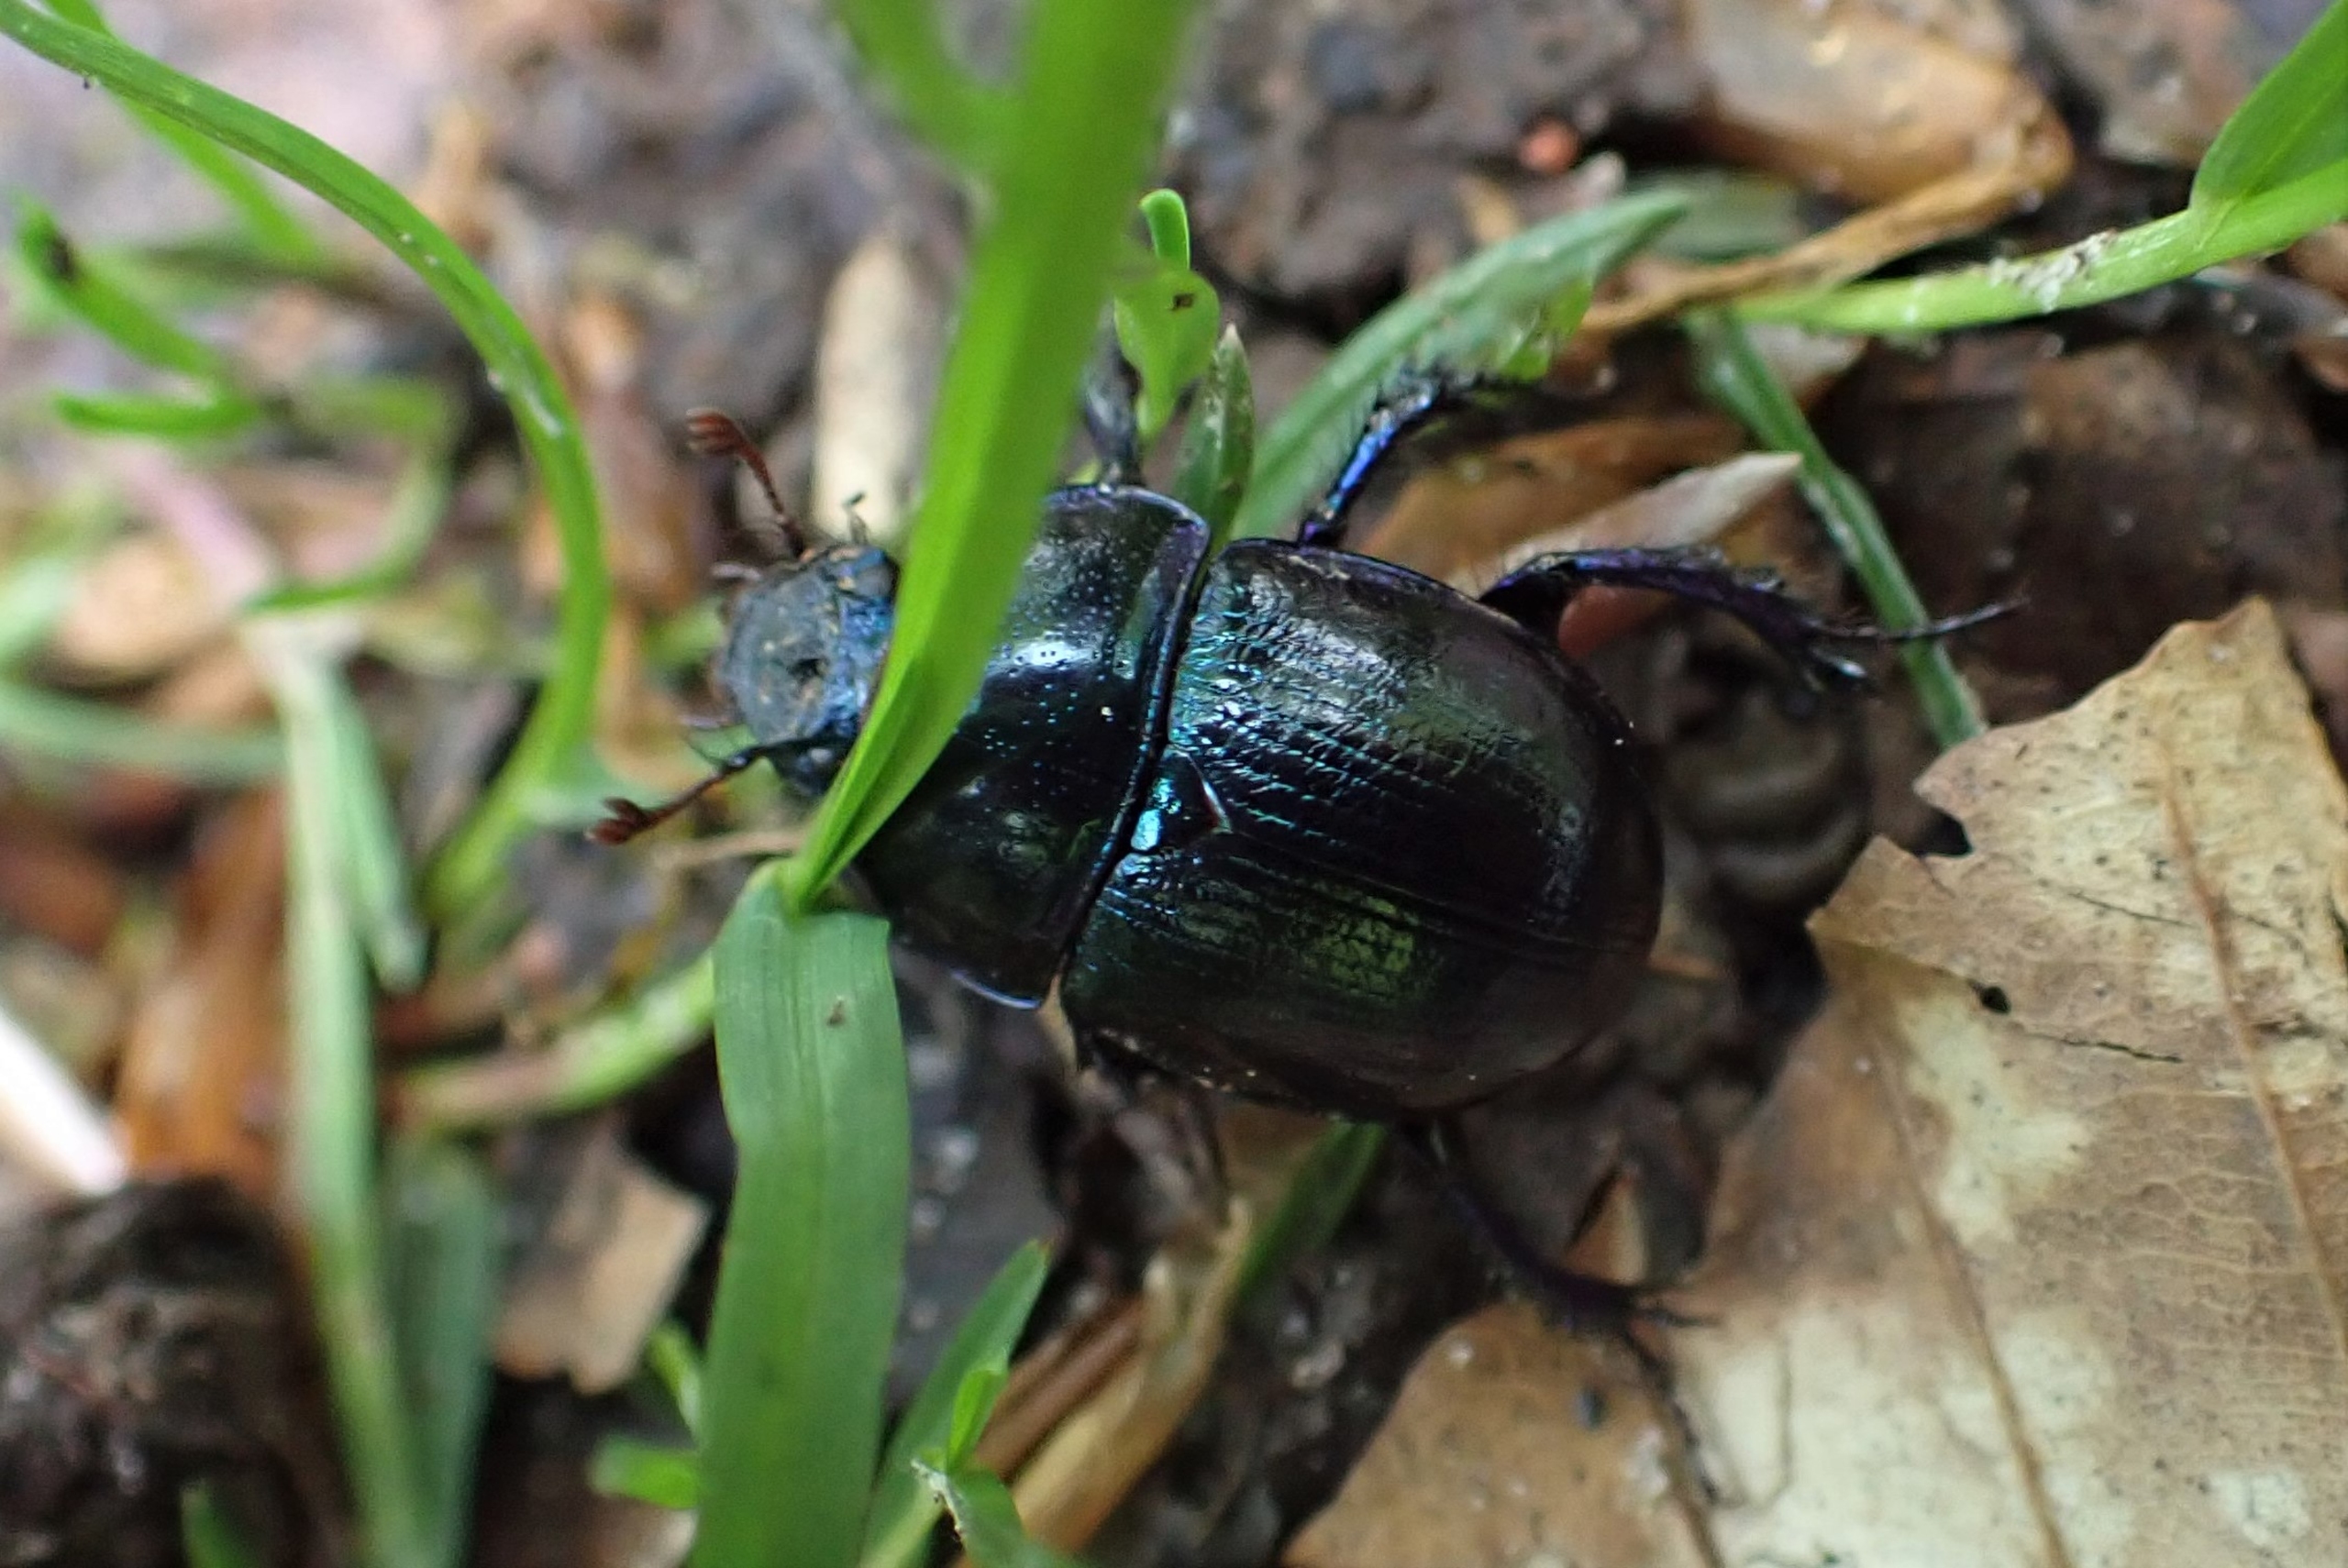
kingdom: Animalia
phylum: Arthropoda
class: Insecta
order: Coleoptera
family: Geotrupidae
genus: Anoplotrupes
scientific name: Anoplotrupes stercorosus
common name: Skovskarnbasse
